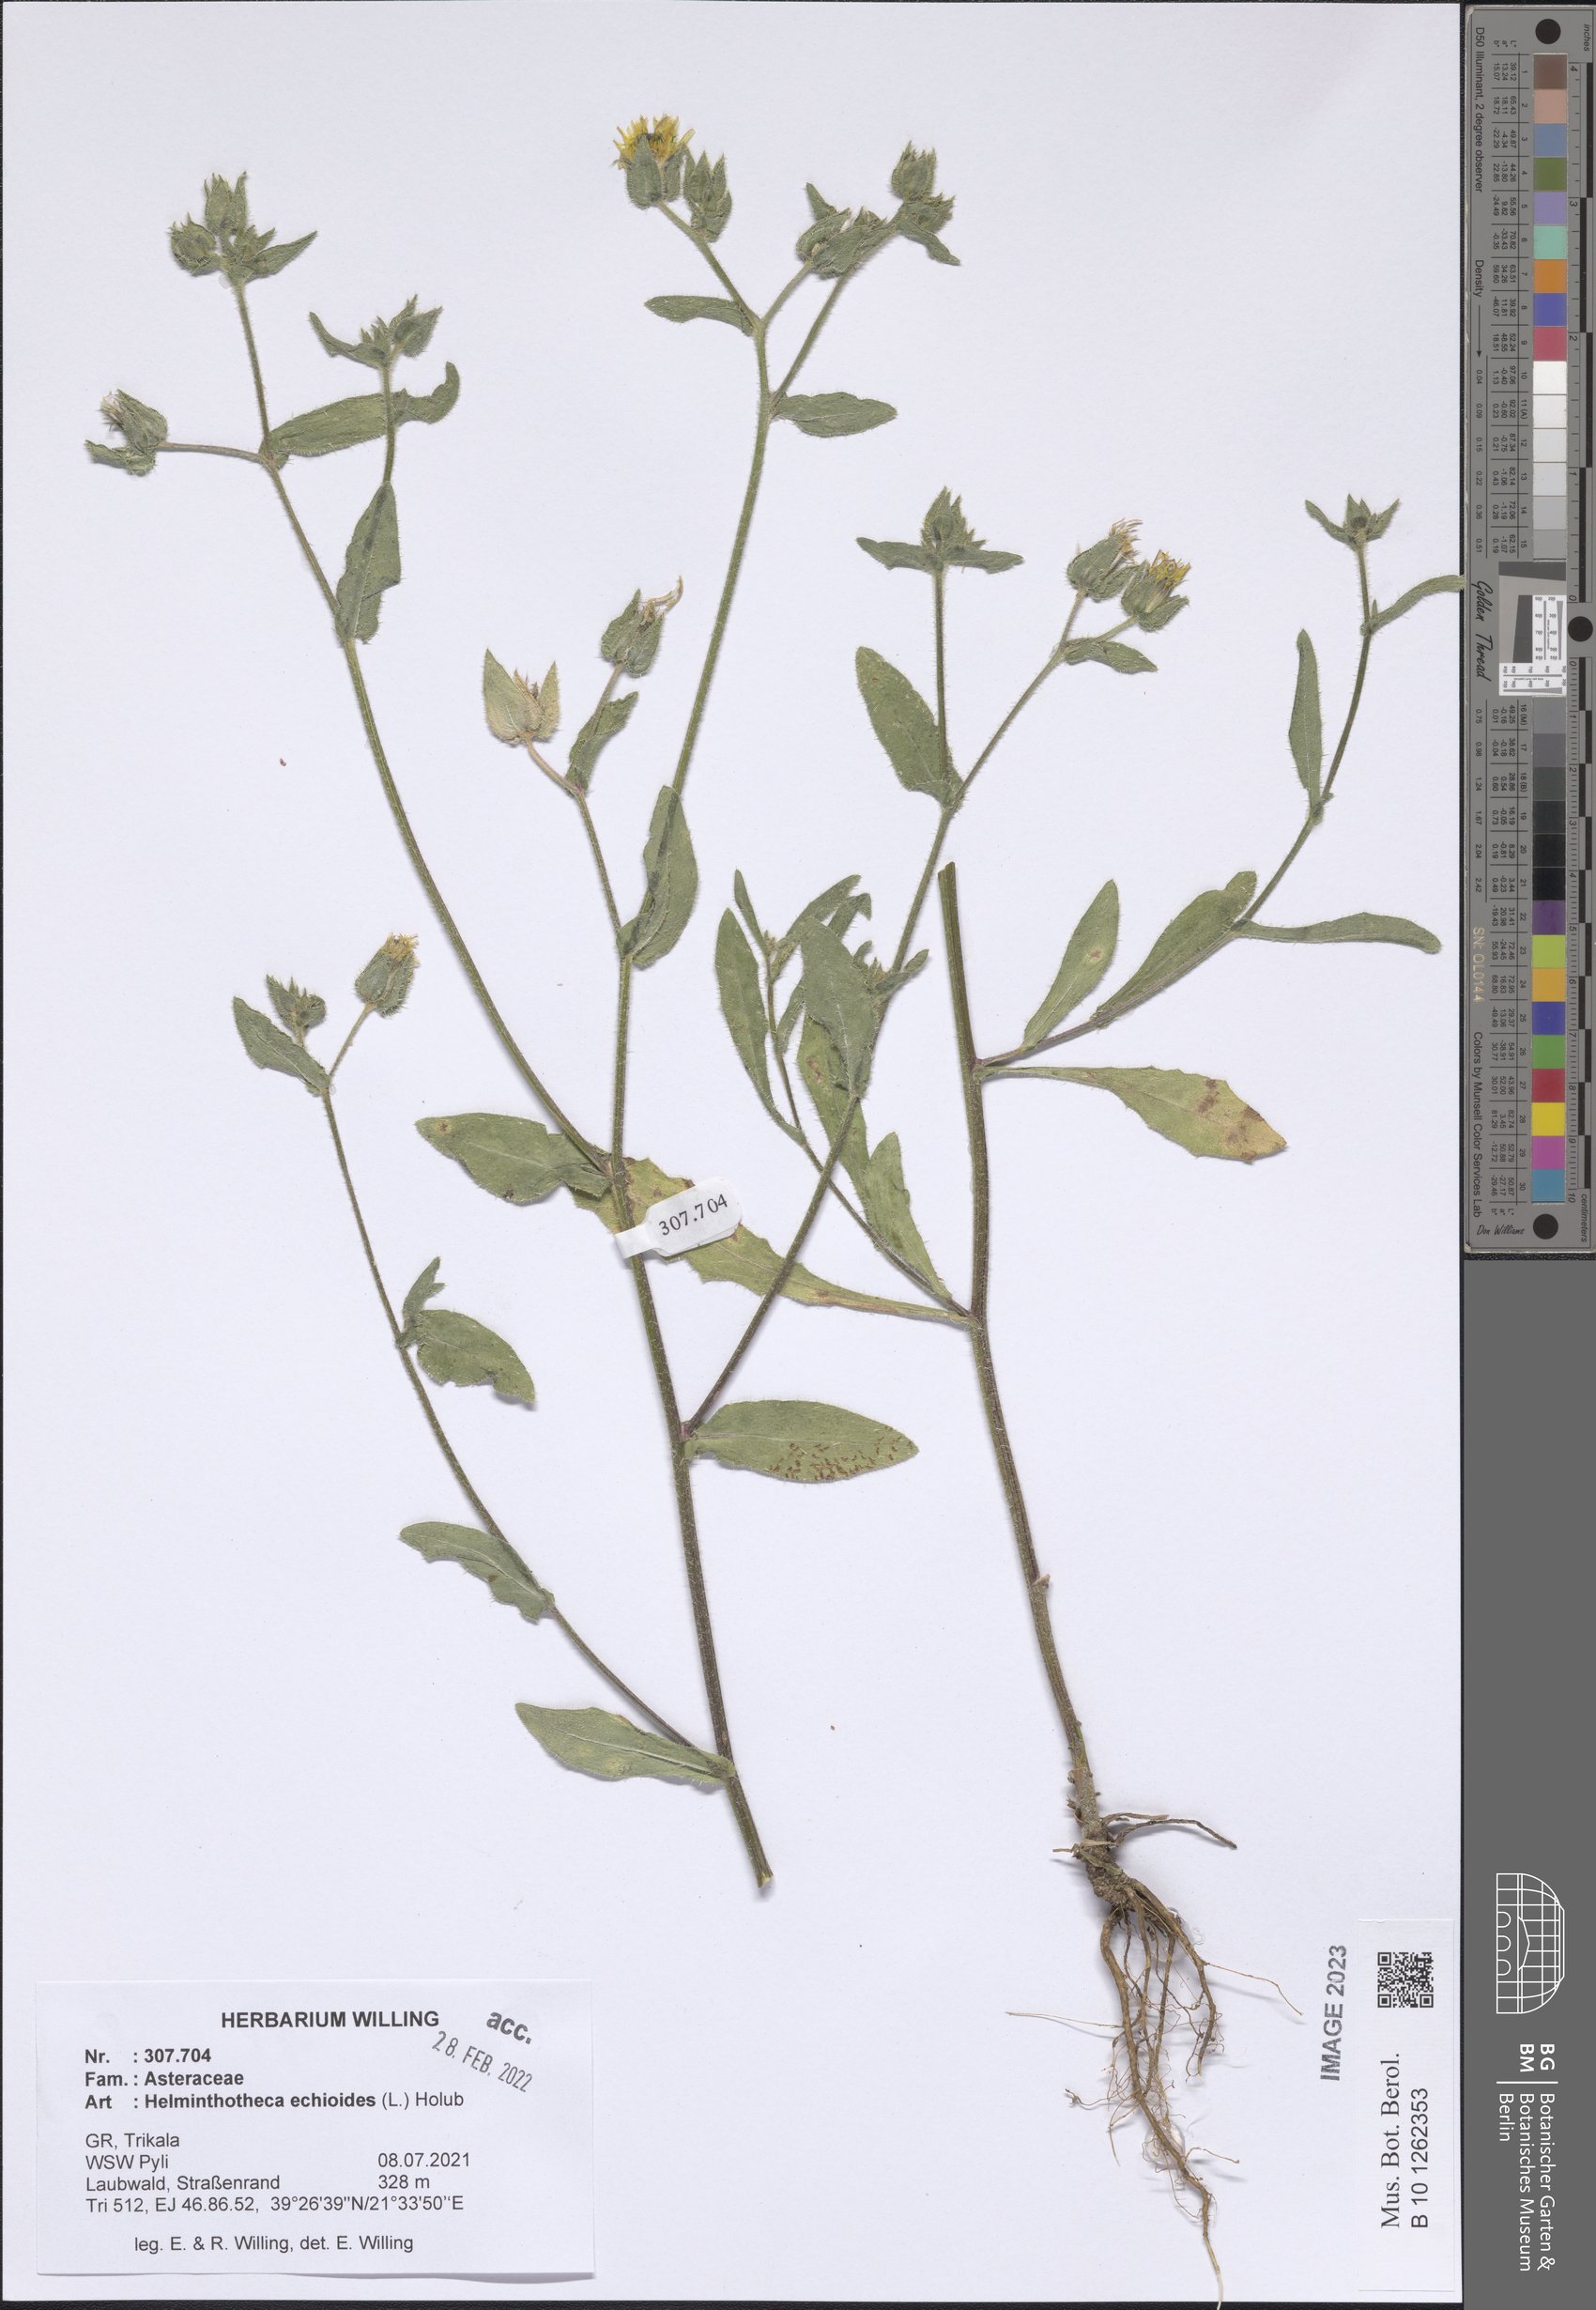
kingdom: Plantae
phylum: Tracheophyta
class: Magnoliopsida
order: Asterales
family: Asteraceae
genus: Helminthotheca
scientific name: Helminthotheca echioides
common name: Ox-tongue
